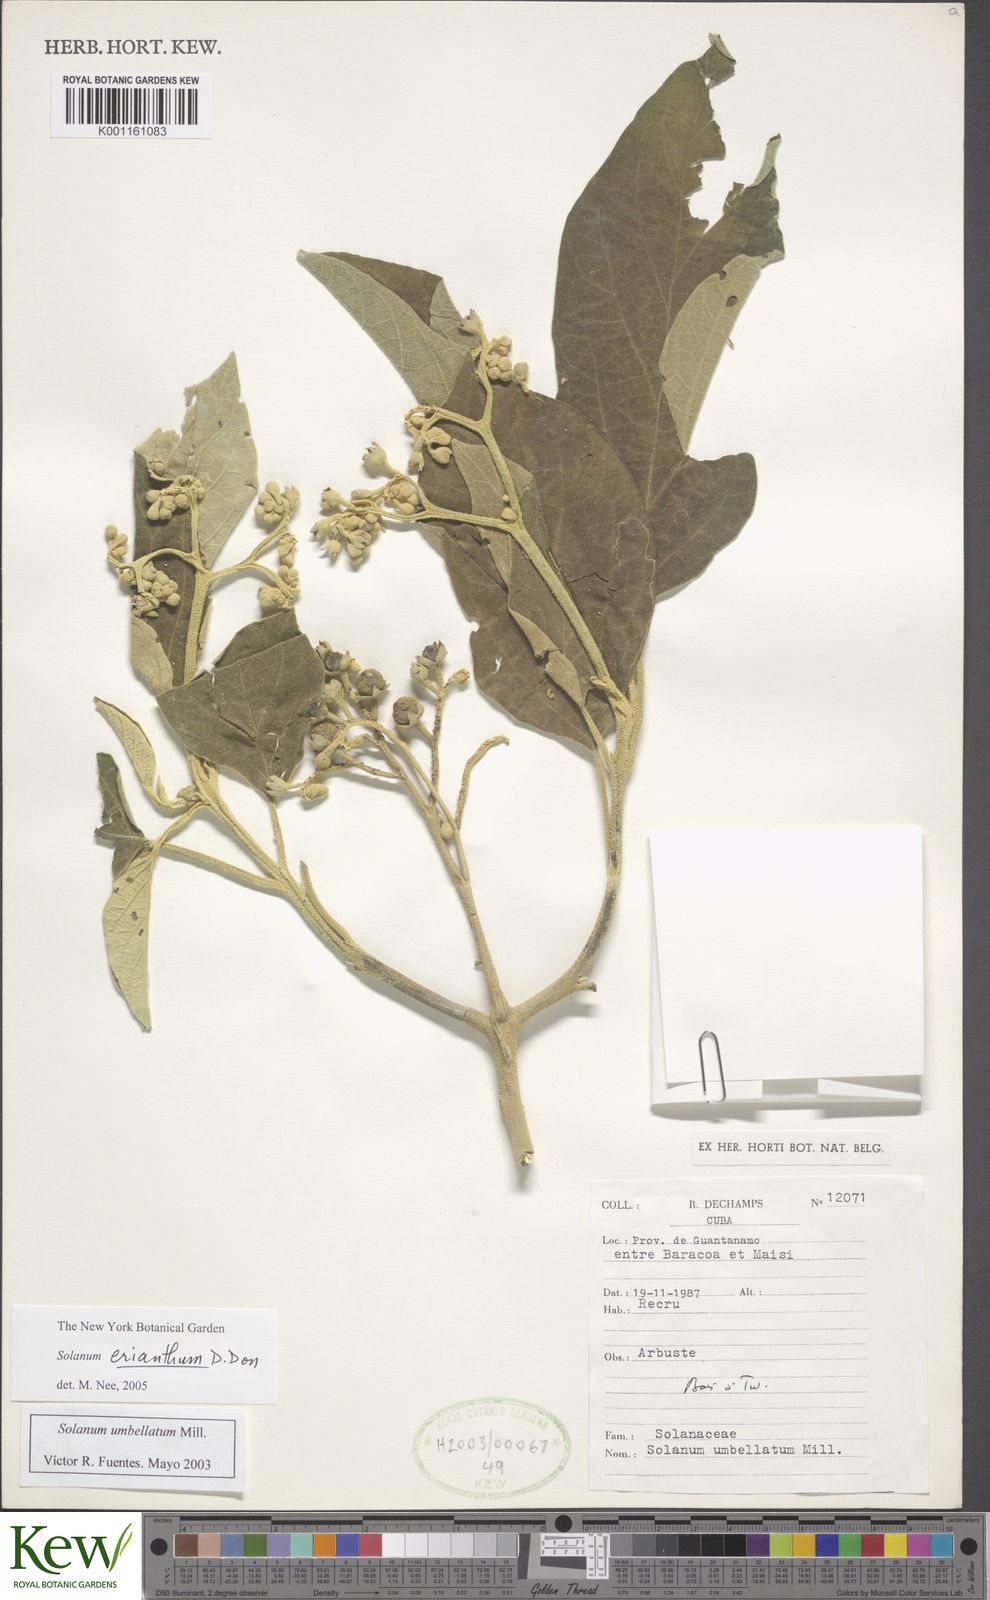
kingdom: Plantae
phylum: Tracheophyta
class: Magnoliopsida
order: Solanales
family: Solanaceae
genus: Solanum
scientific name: Solanum erianthum
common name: Tobacco-tree
